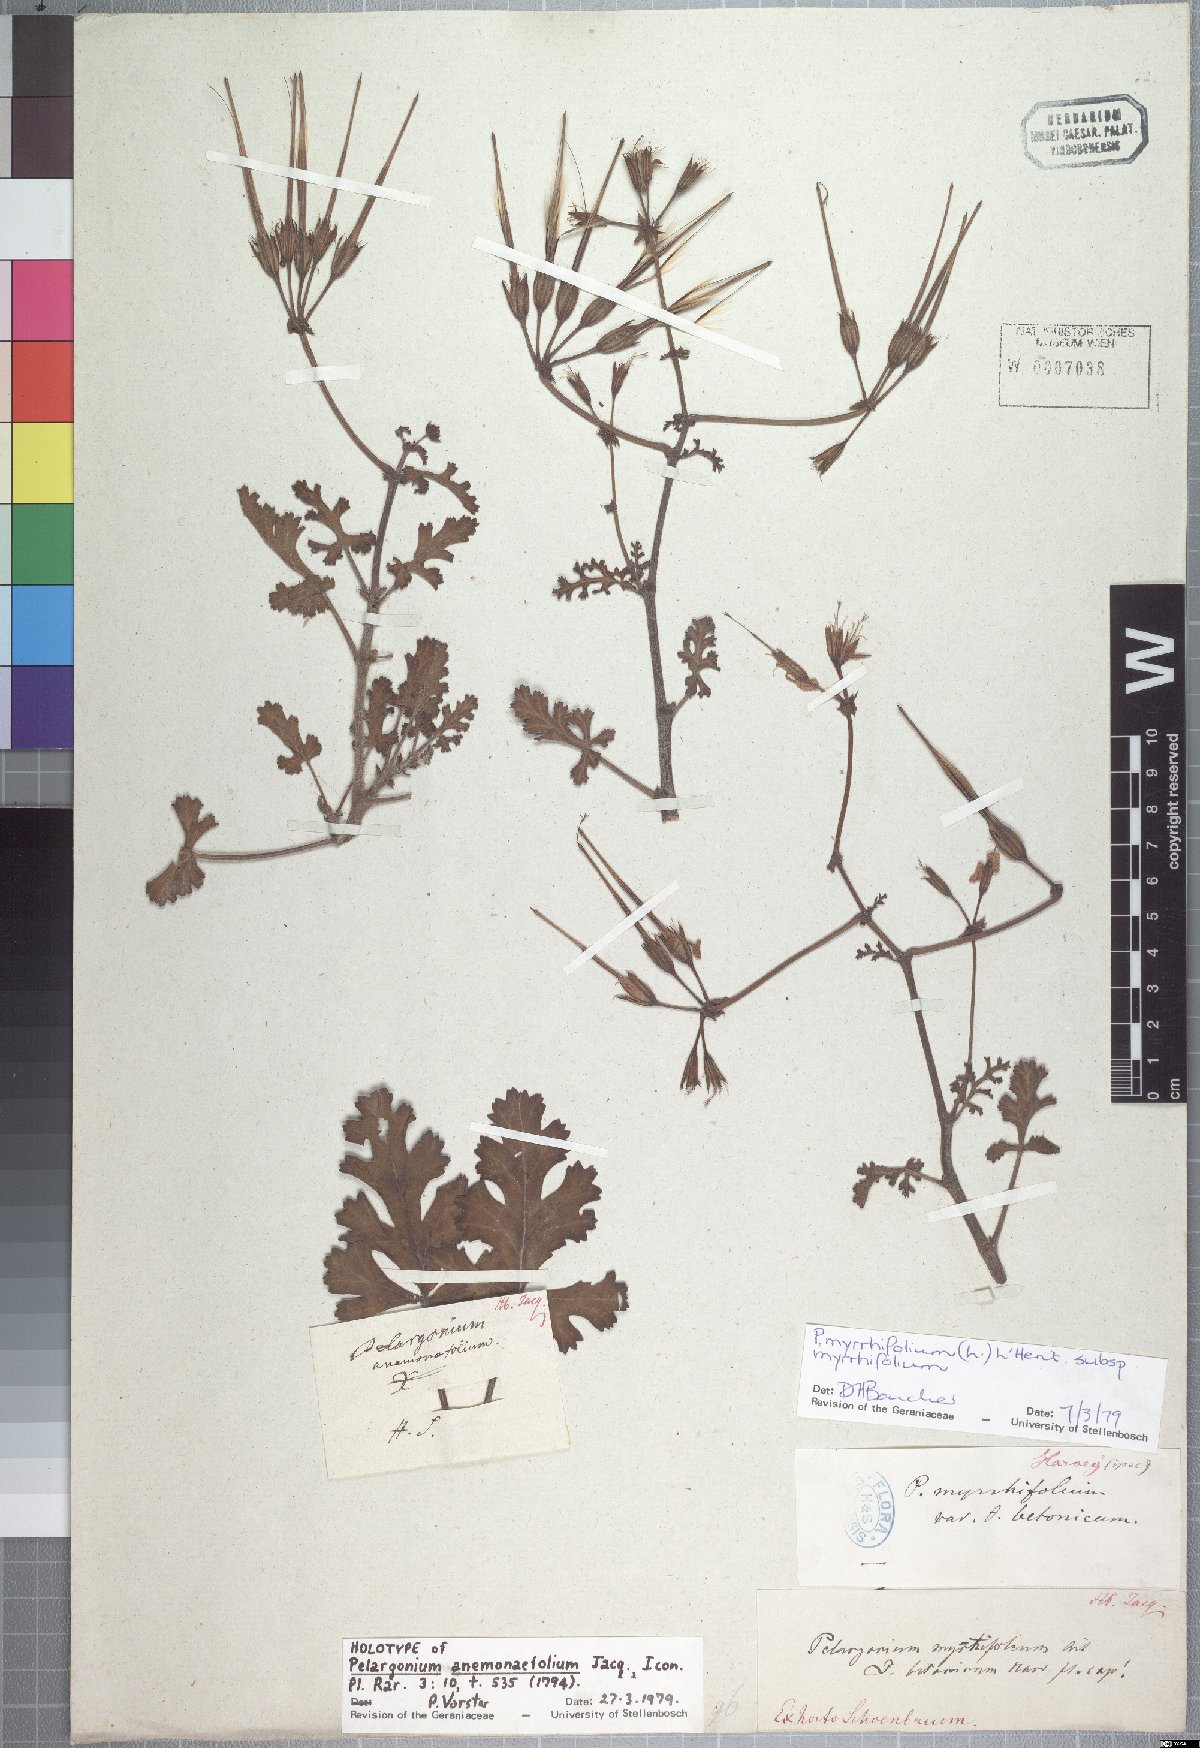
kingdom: Plantae
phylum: Tracheophyta
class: Magnoliopsida
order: Geraniales
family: Geraniaceae
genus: Pelargonium
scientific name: Pelargonium myrrhifolium
